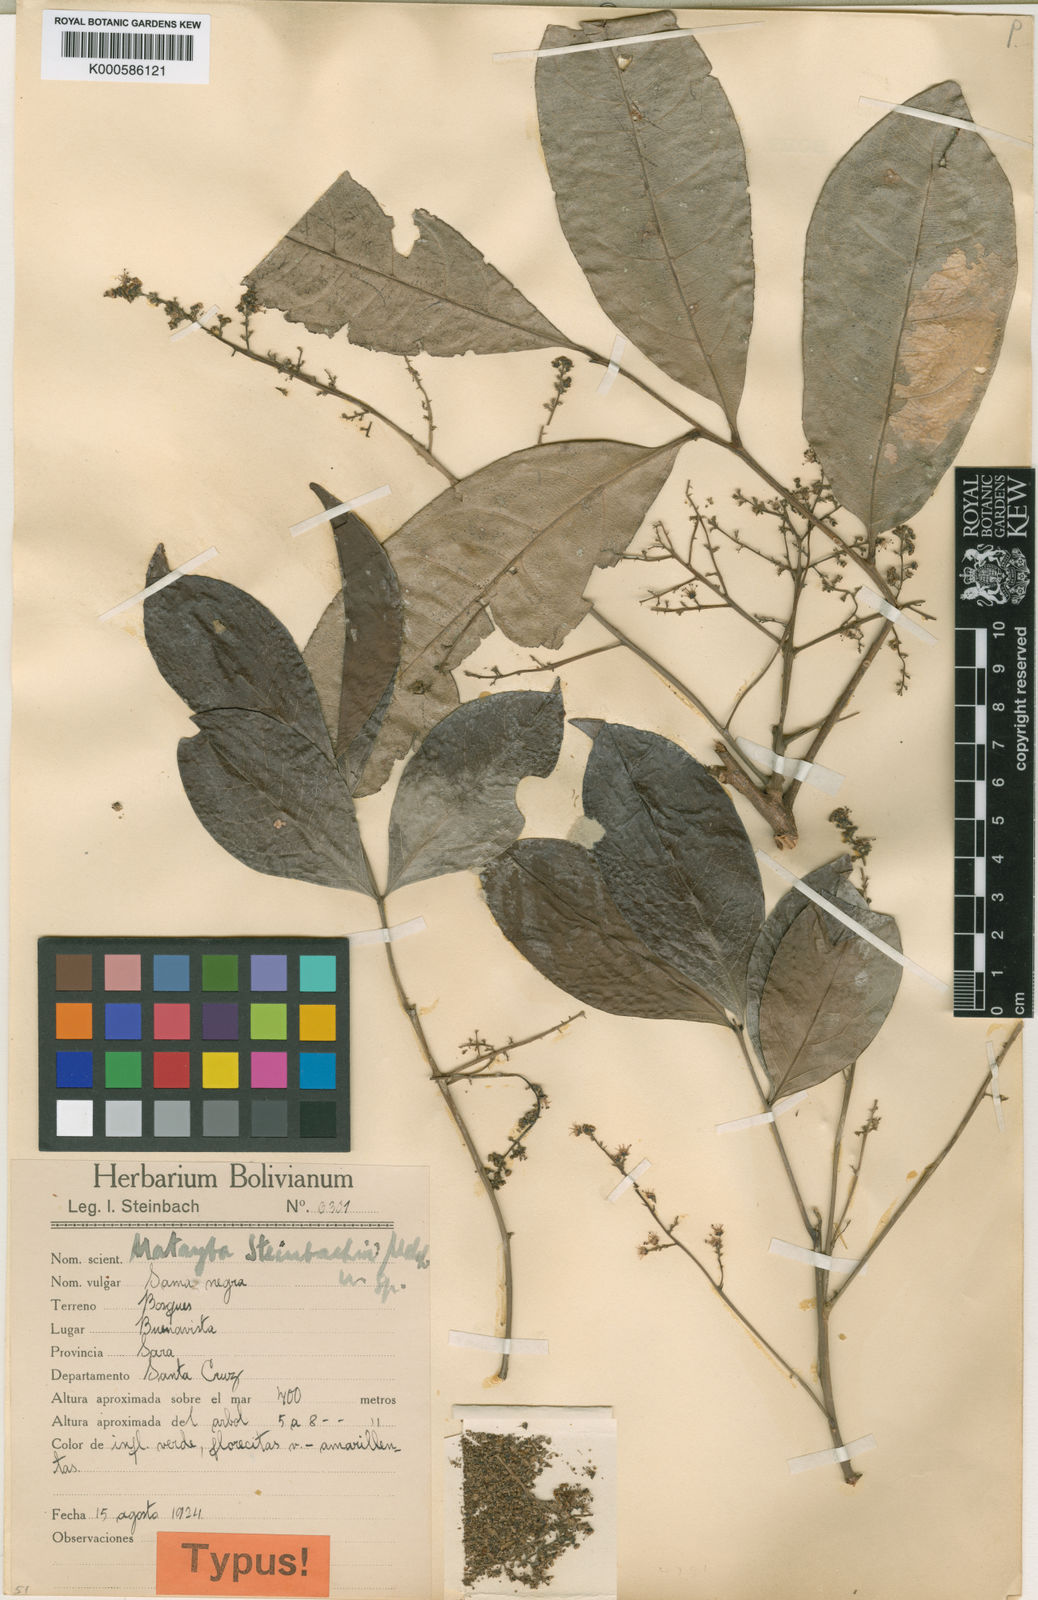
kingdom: Plantae
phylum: Tracheophyta
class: Magnoliopsida
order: Sapindales
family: Sapindaceae
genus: Matayba
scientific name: Matayba guianensis
